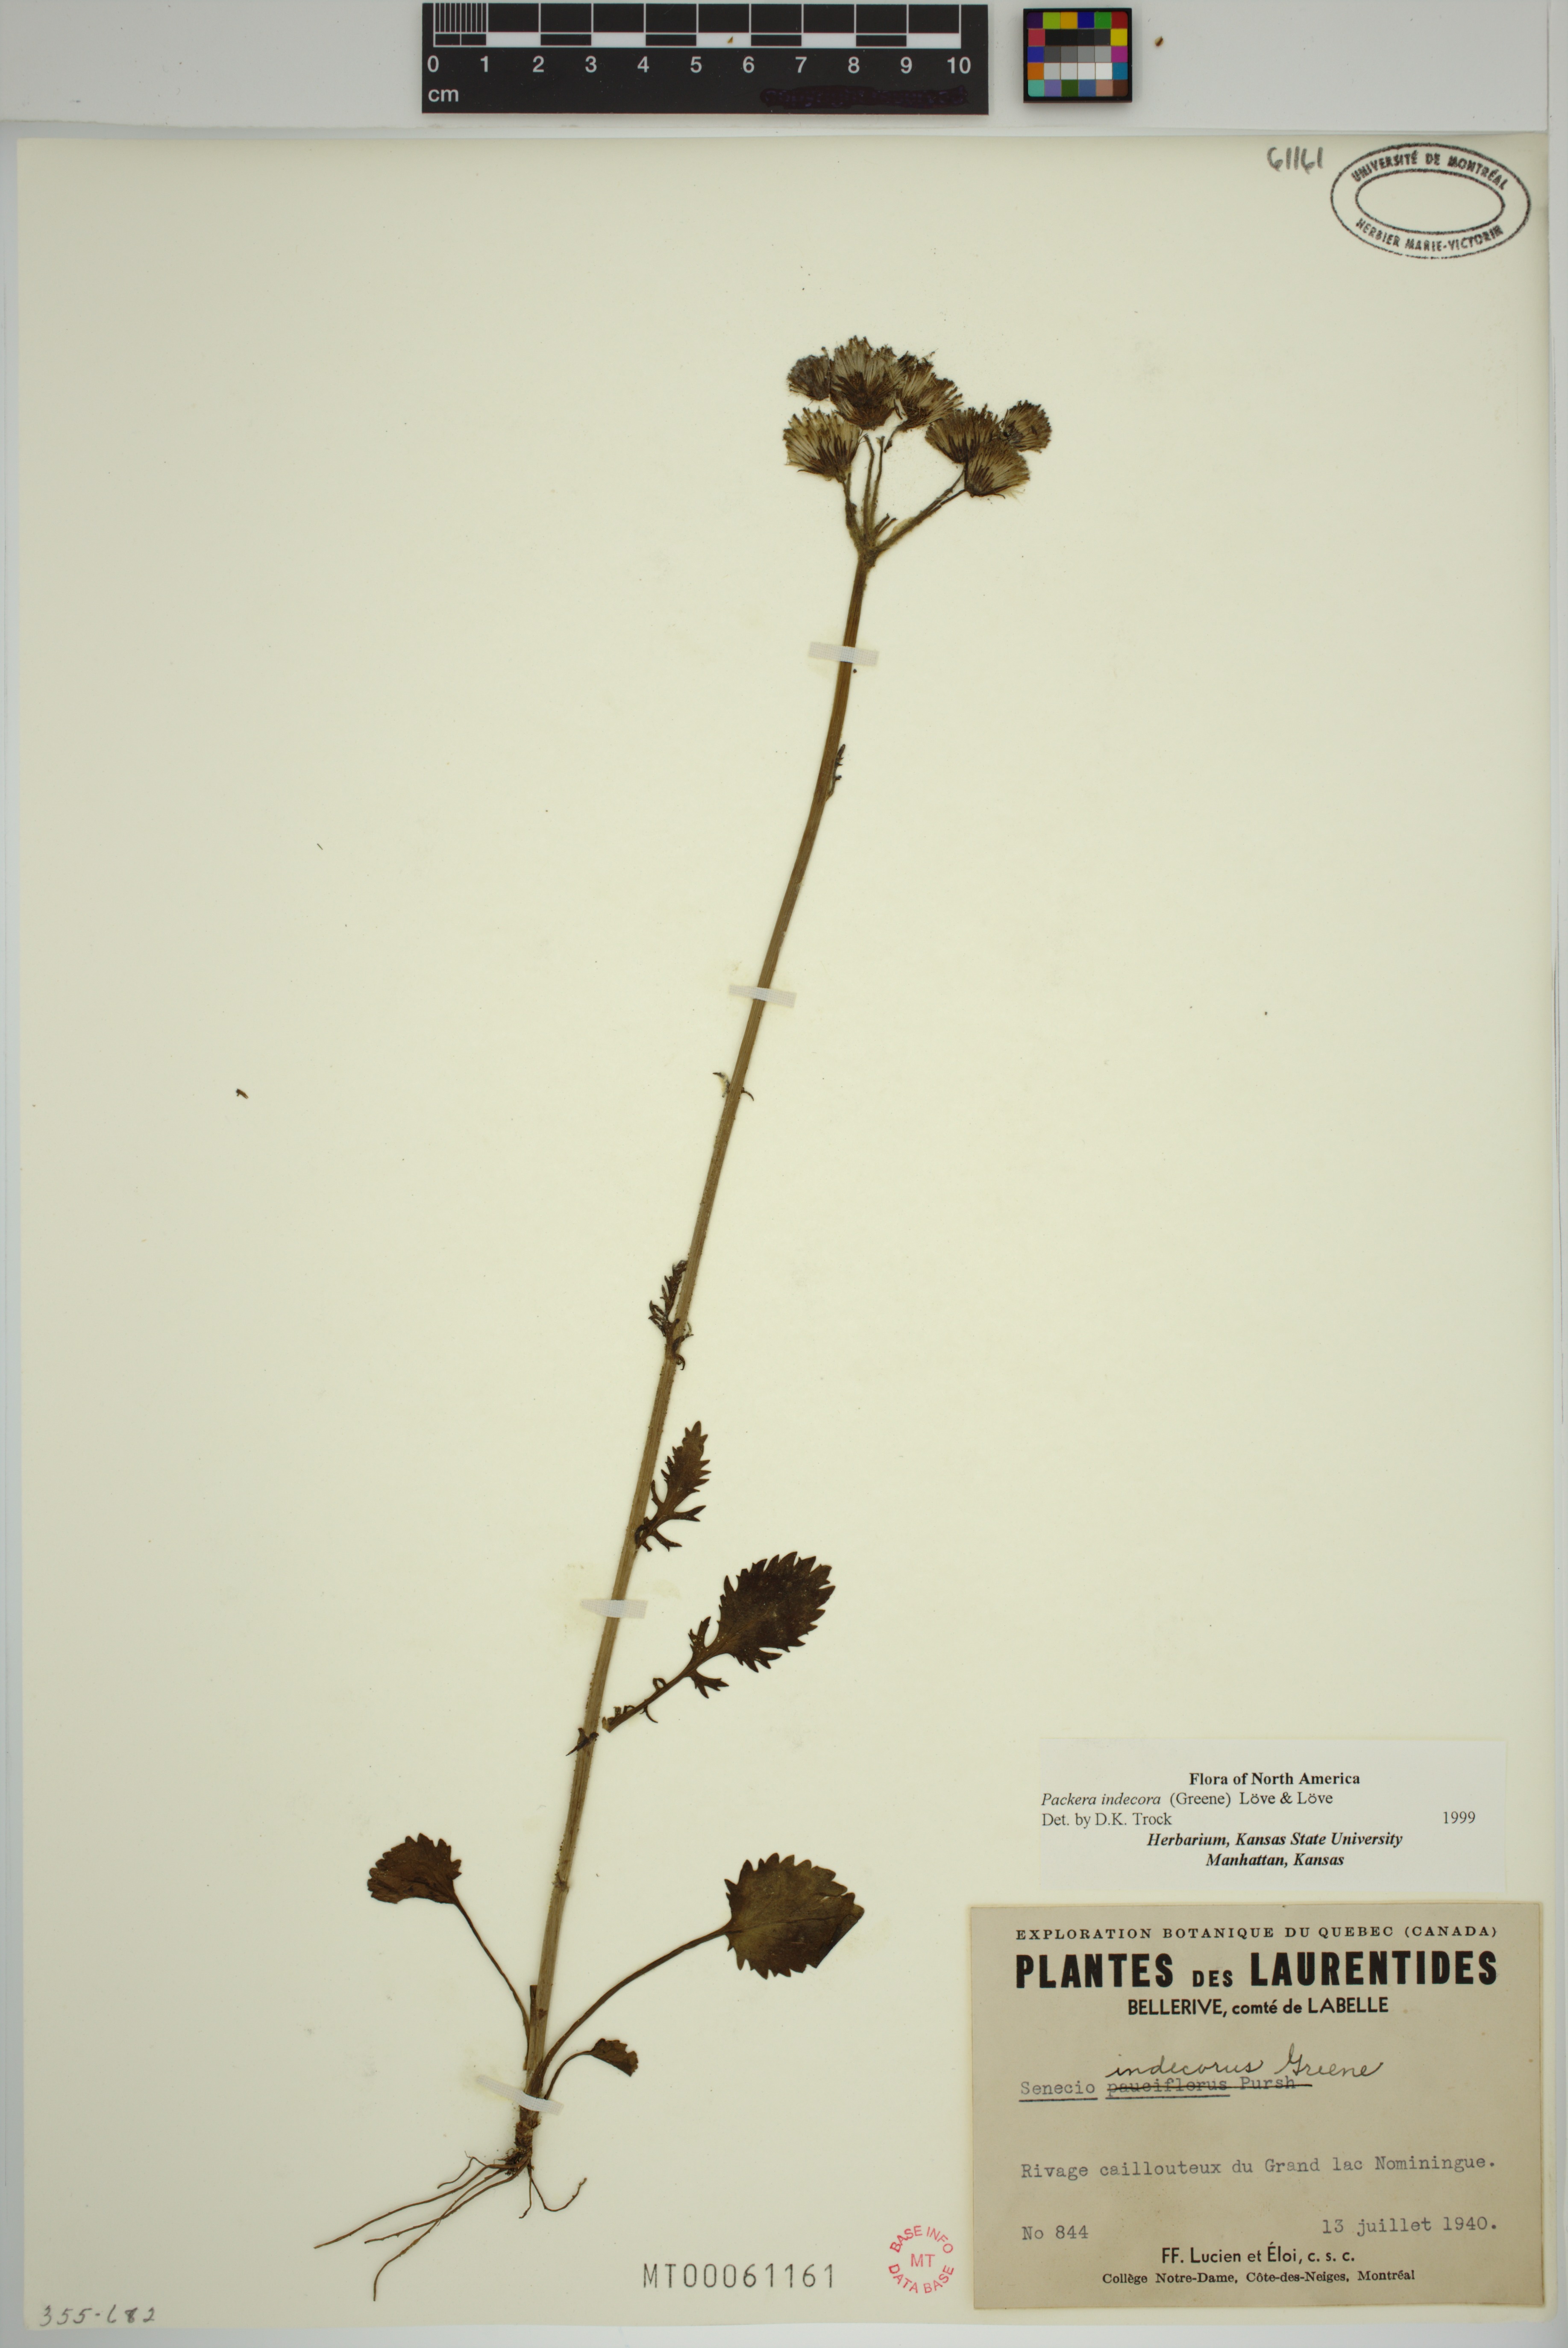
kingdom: Plantae
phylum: Tracheophyta
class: Magnoliopsida
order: Asterales
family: Asteraceae
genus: Packera
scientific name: Packera indecora
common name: Elegant groundsel
